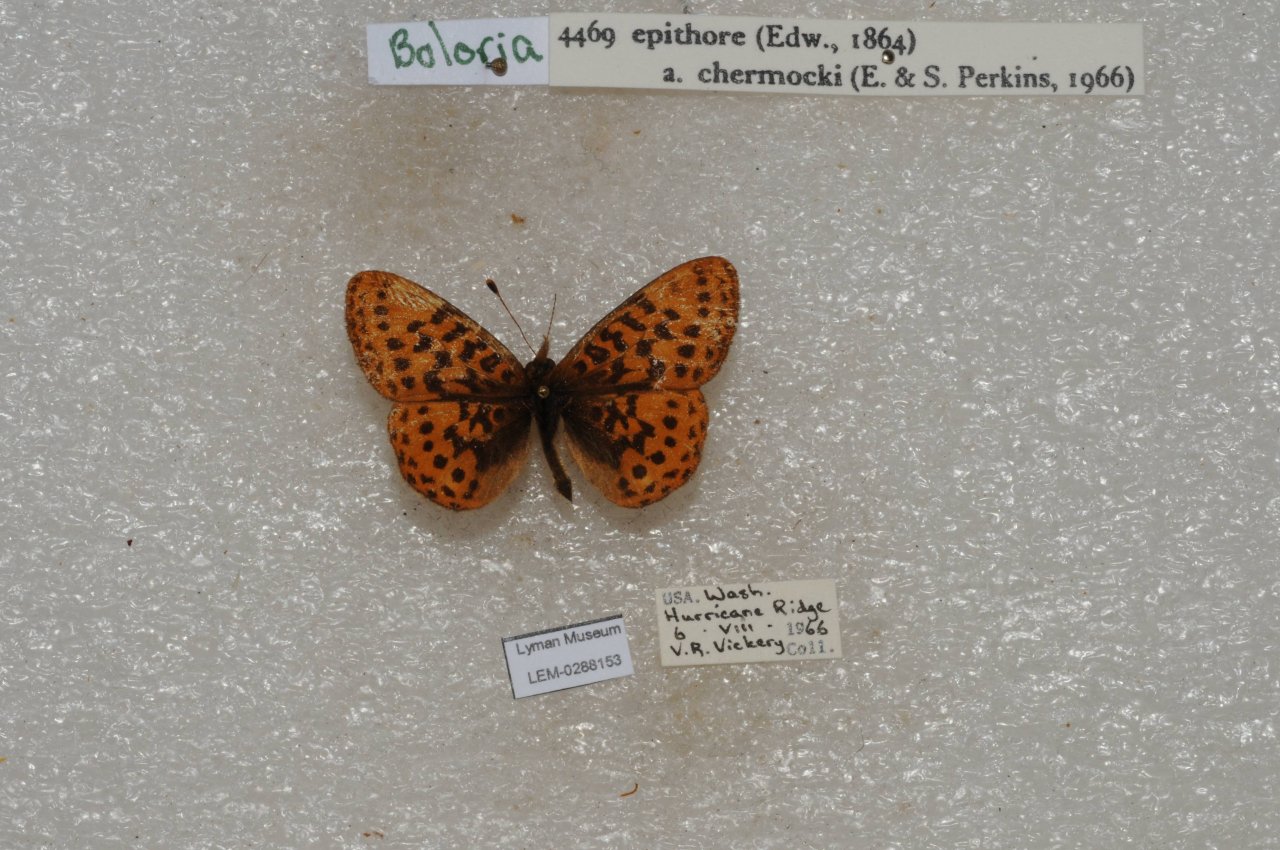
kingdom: Animalia
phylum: Arthropoda
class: Insecta
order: Lepidoptera
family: Nymphalidae
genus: Boloria
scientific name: Boloria epithore
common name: Pacific Fritillary
